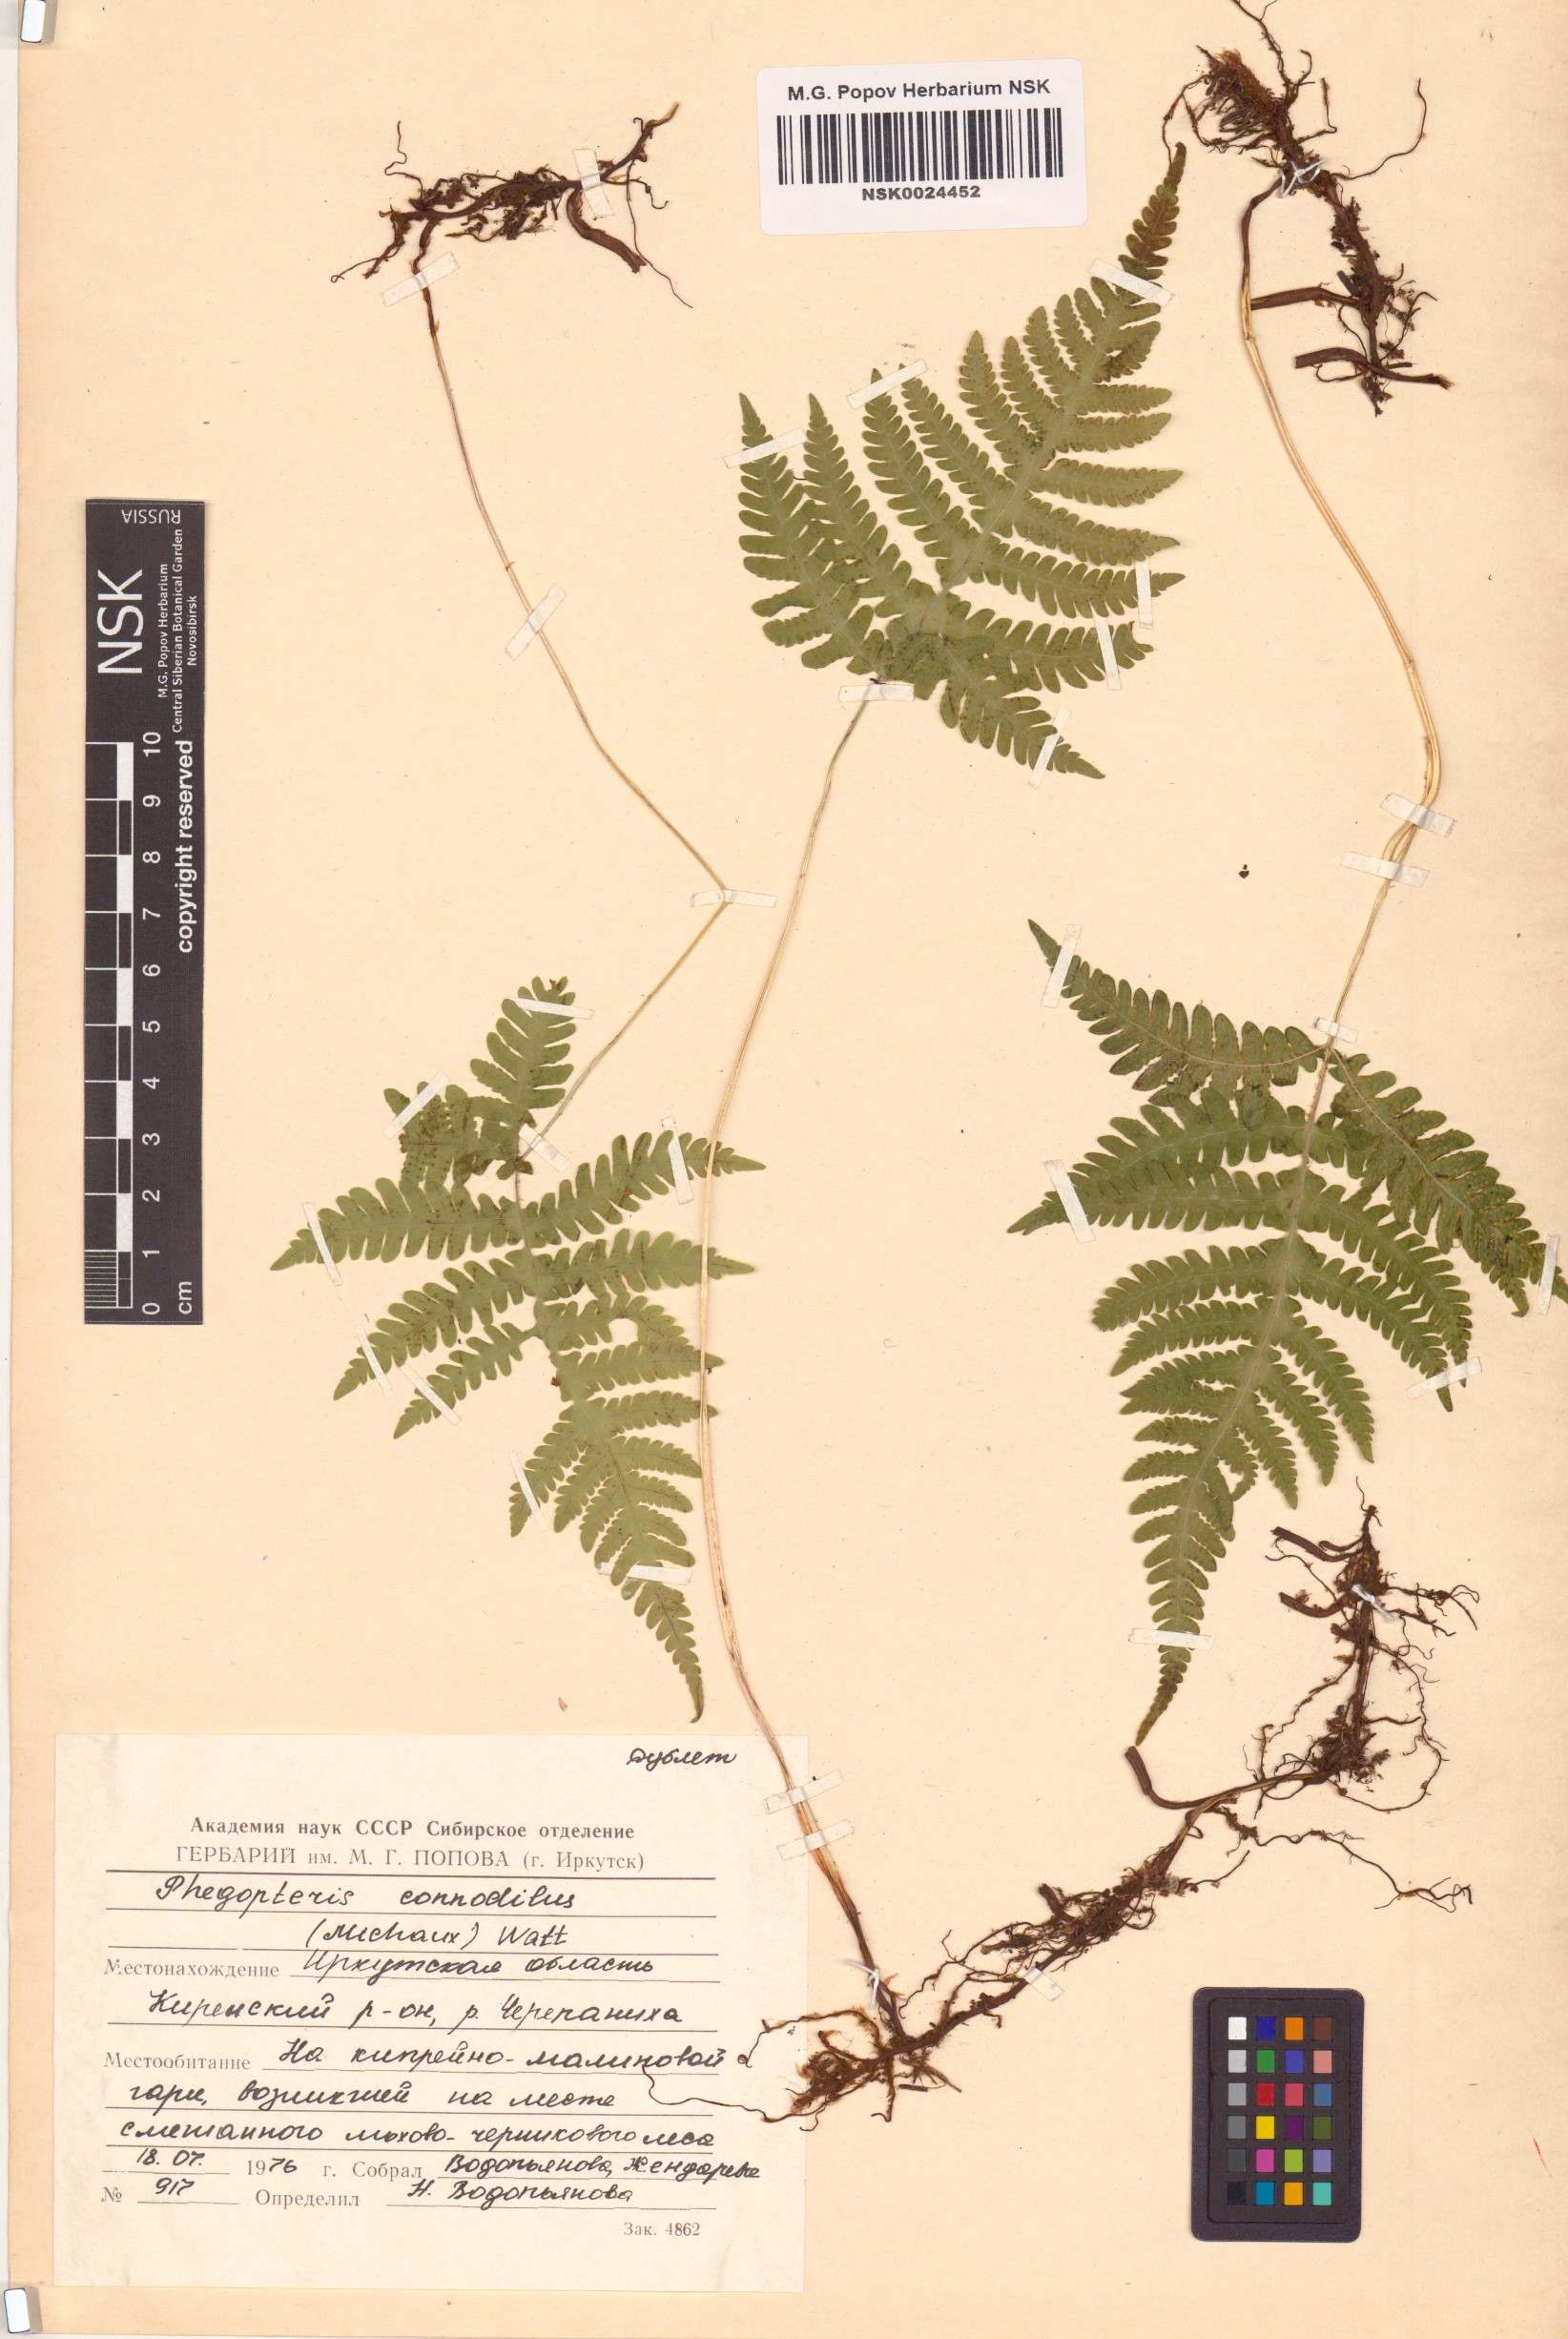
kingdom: Plantae
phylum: Tracheophyta
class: Polypodiopsida
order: Polypodiales
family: Thelypteridaceae
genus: Phegopteris
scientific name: Phegopteris connectilis
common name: Beech fern
